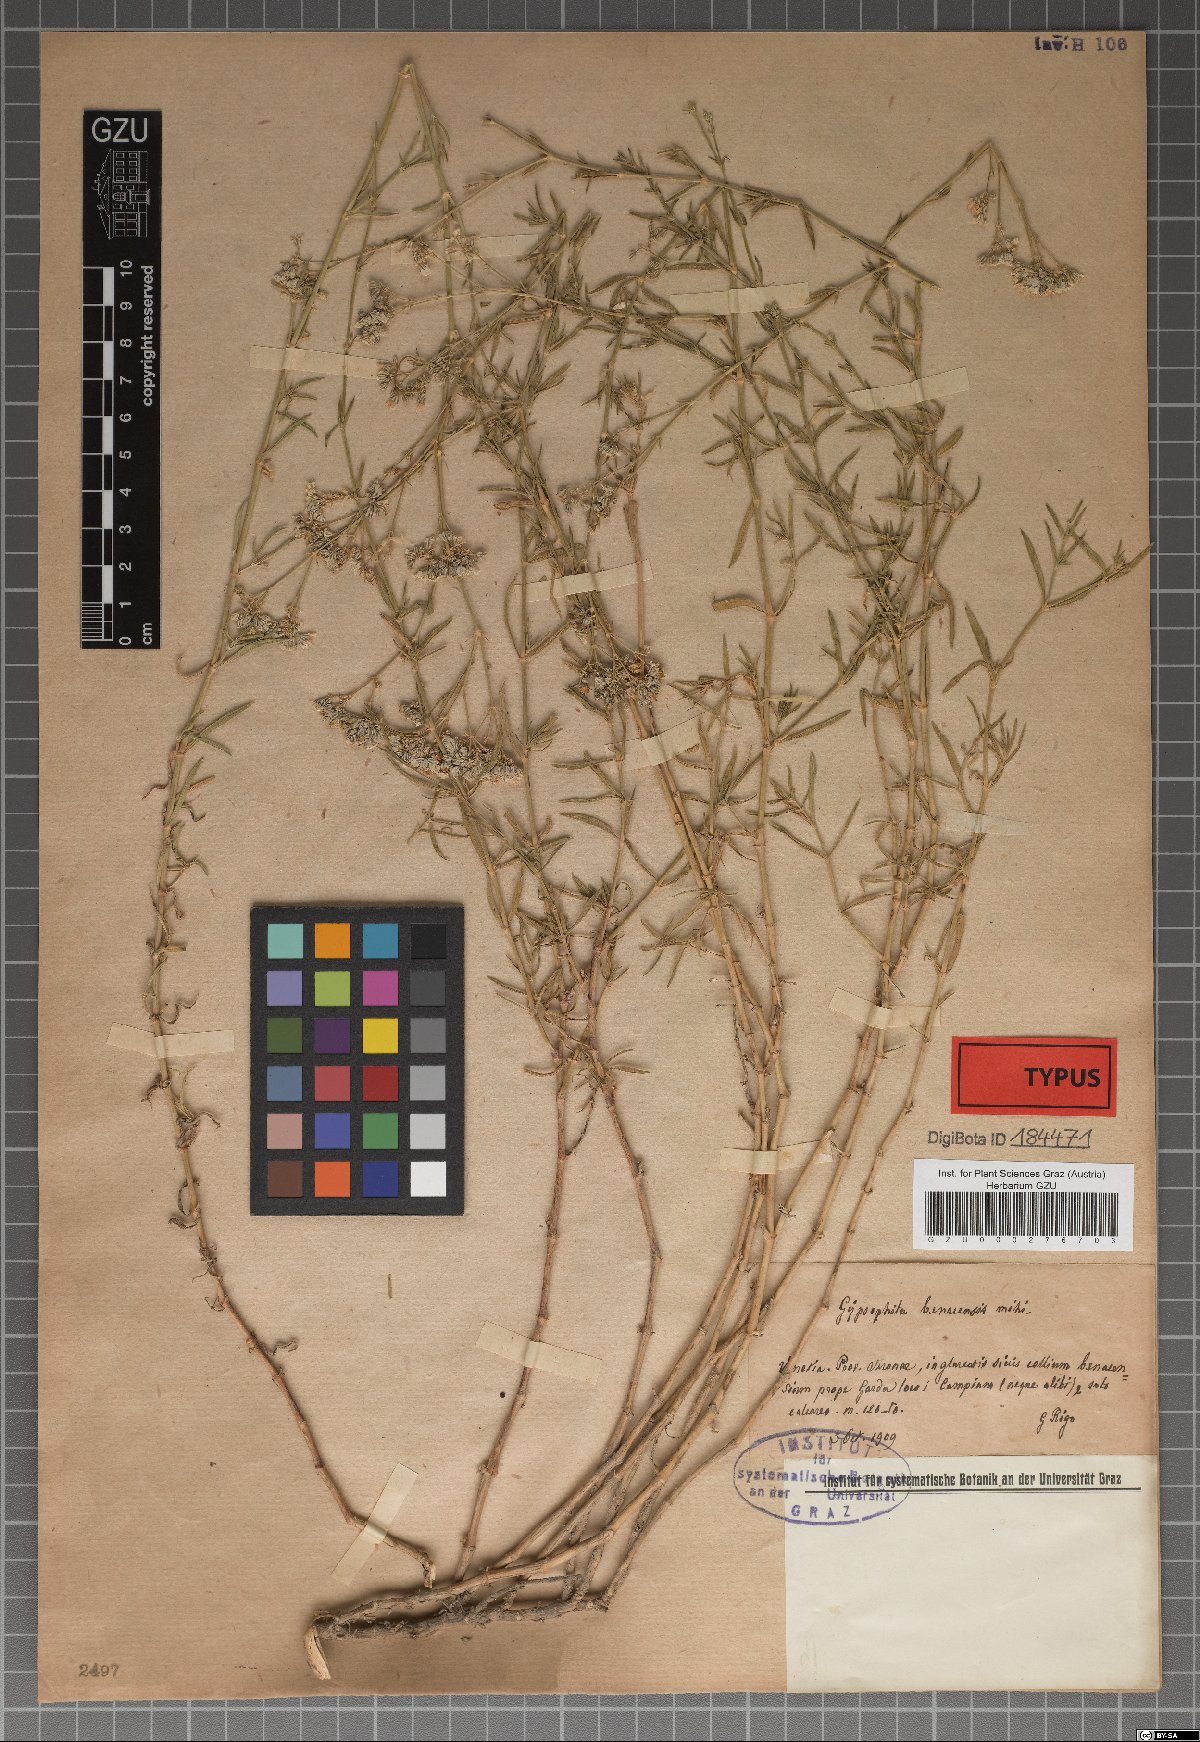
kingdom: Plantae
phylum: Tracheophyta
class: Magnoliopsida
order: Caryophyllales
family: Caryophyllaceae
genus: Gypsophila
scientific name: Gypsophila
